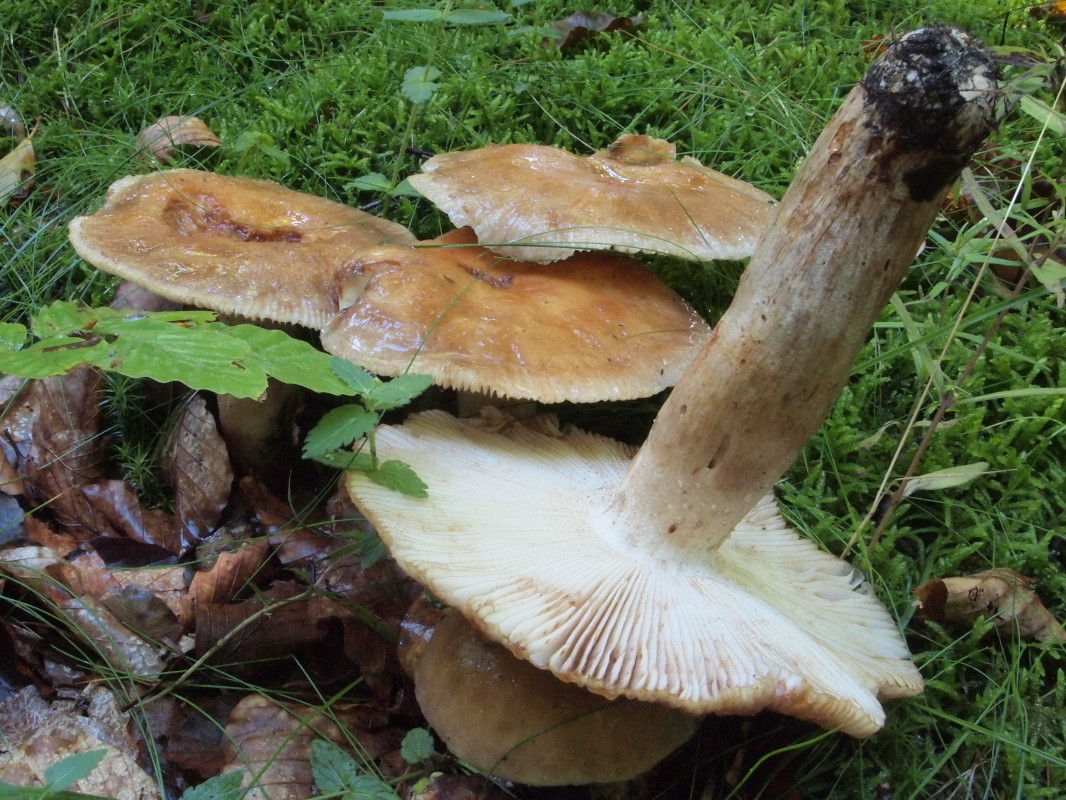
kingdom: Fungi
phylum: Basidiomycota
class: Agaricomycetes
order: Russulales
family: Russulaceae
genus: Russula
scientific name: Russula illota
